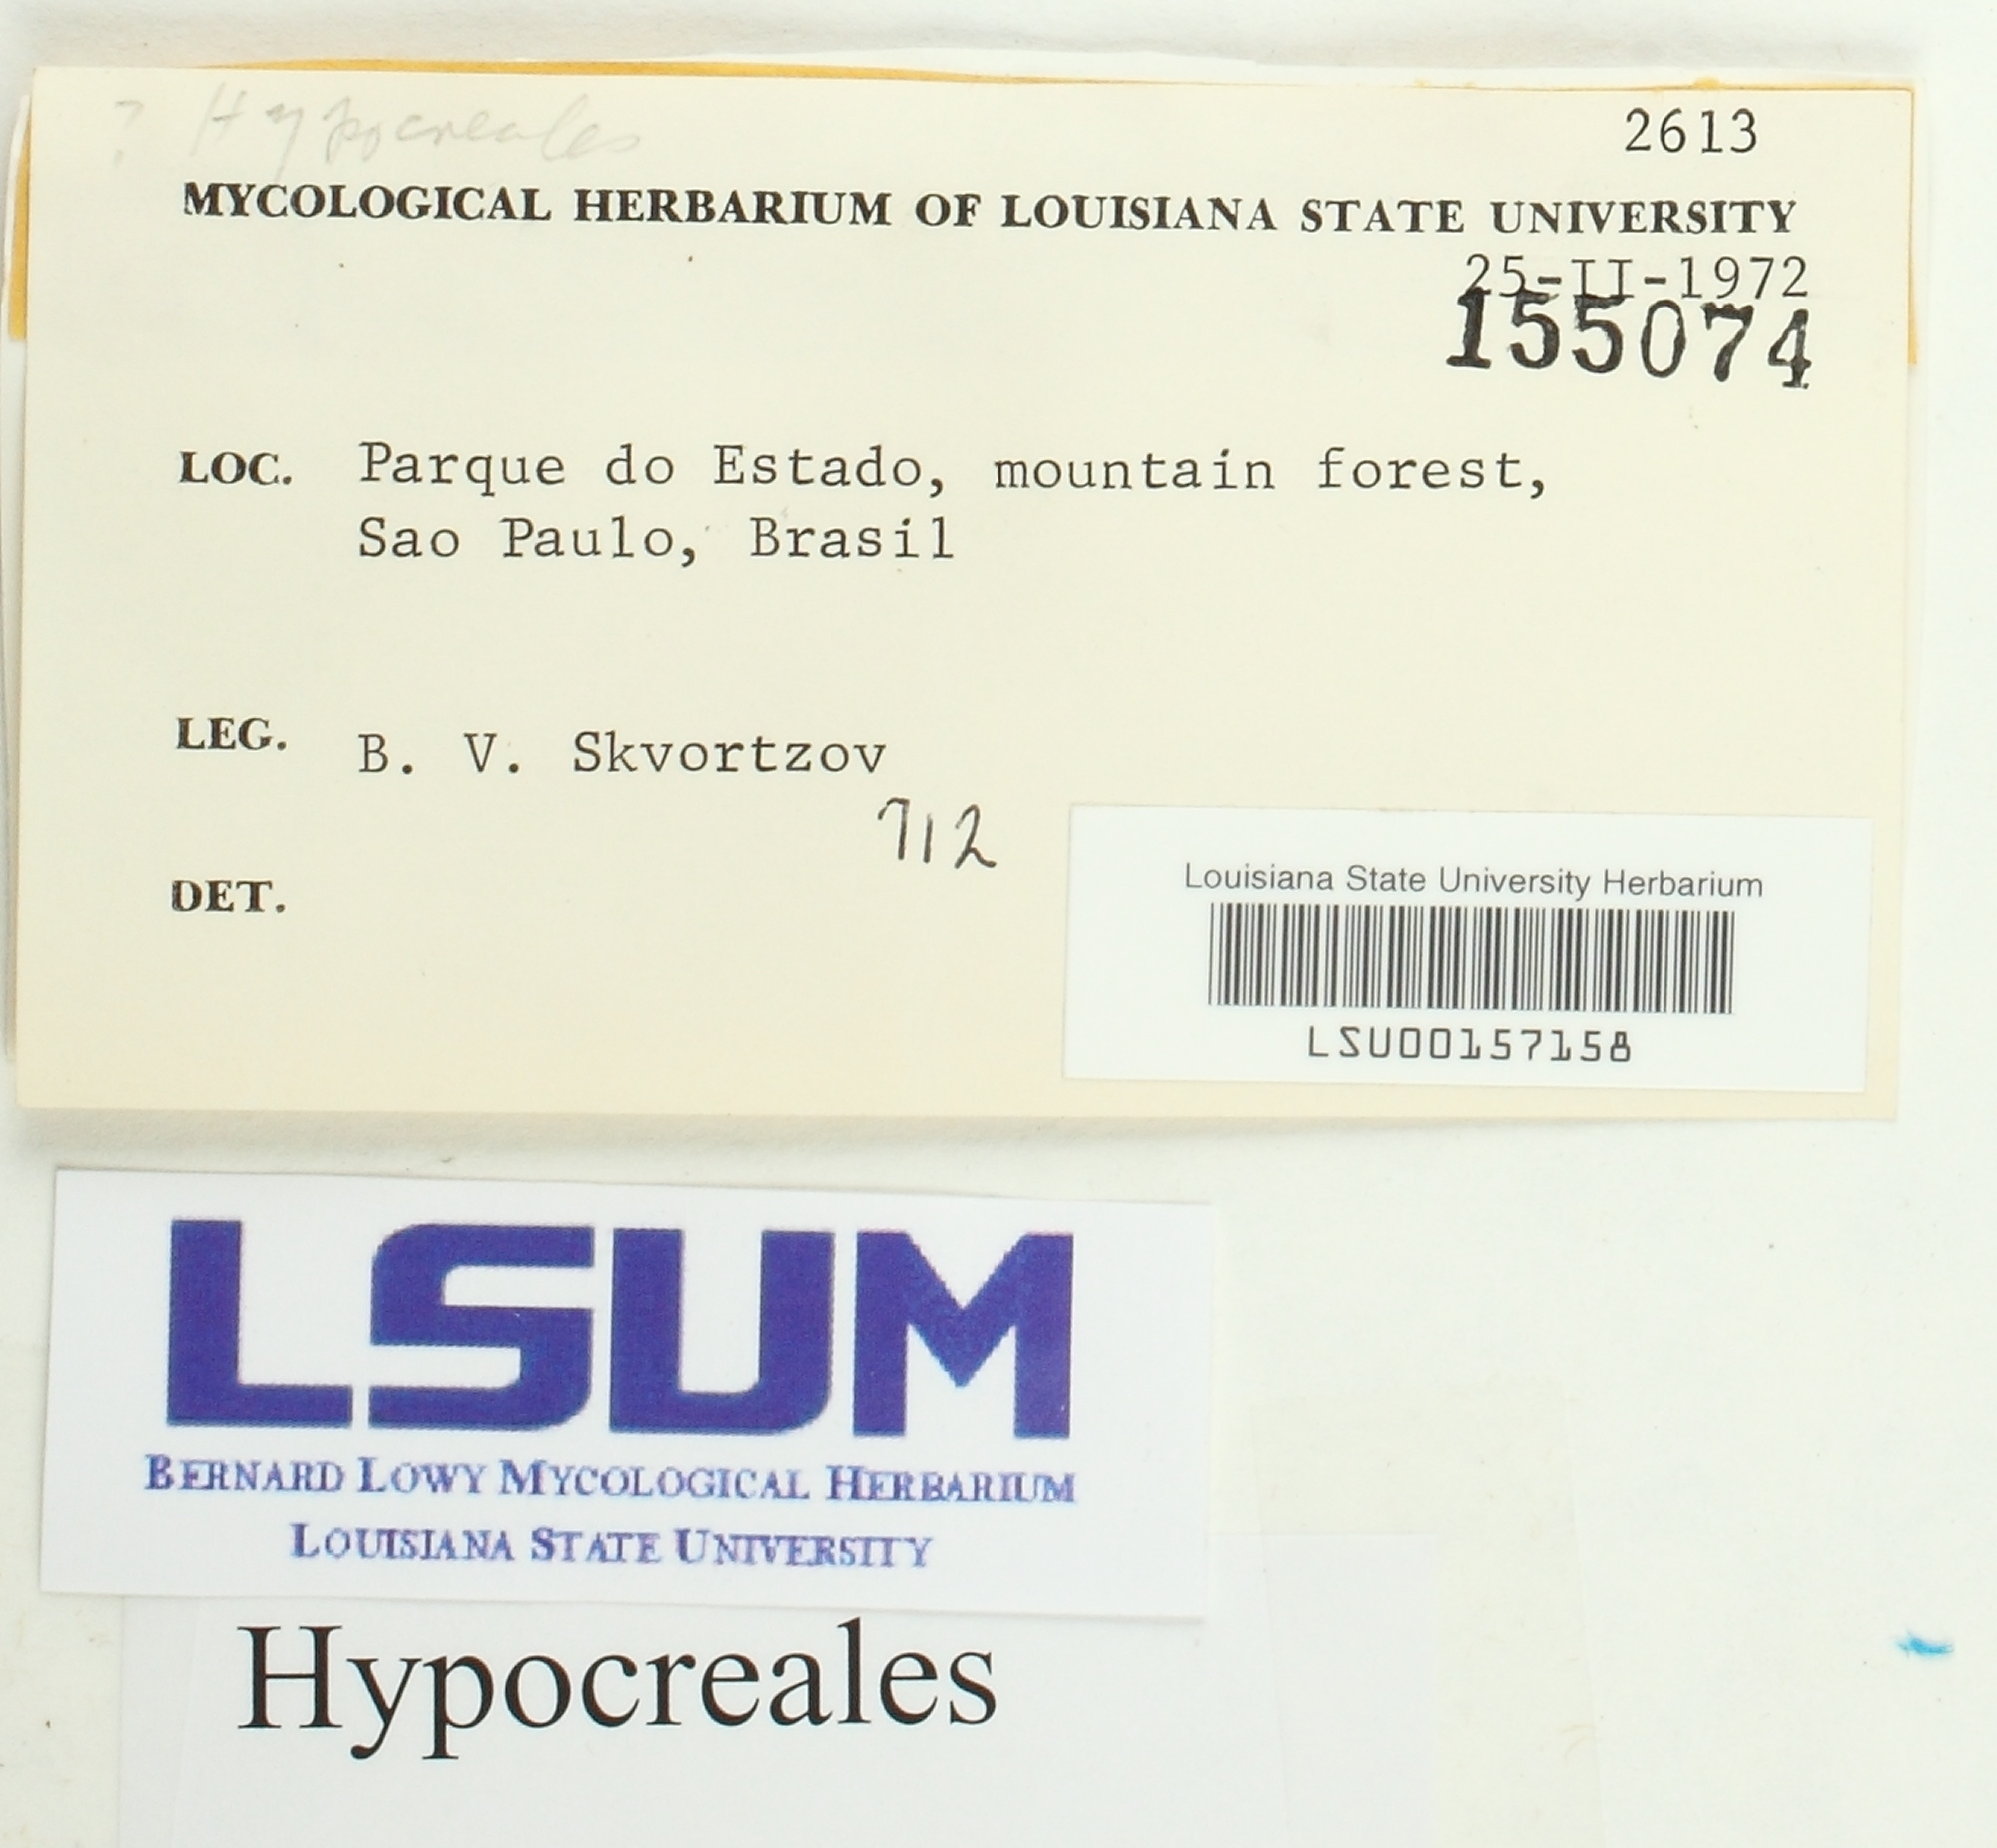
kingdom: Fungi
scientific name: Fungi
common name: Fungi
